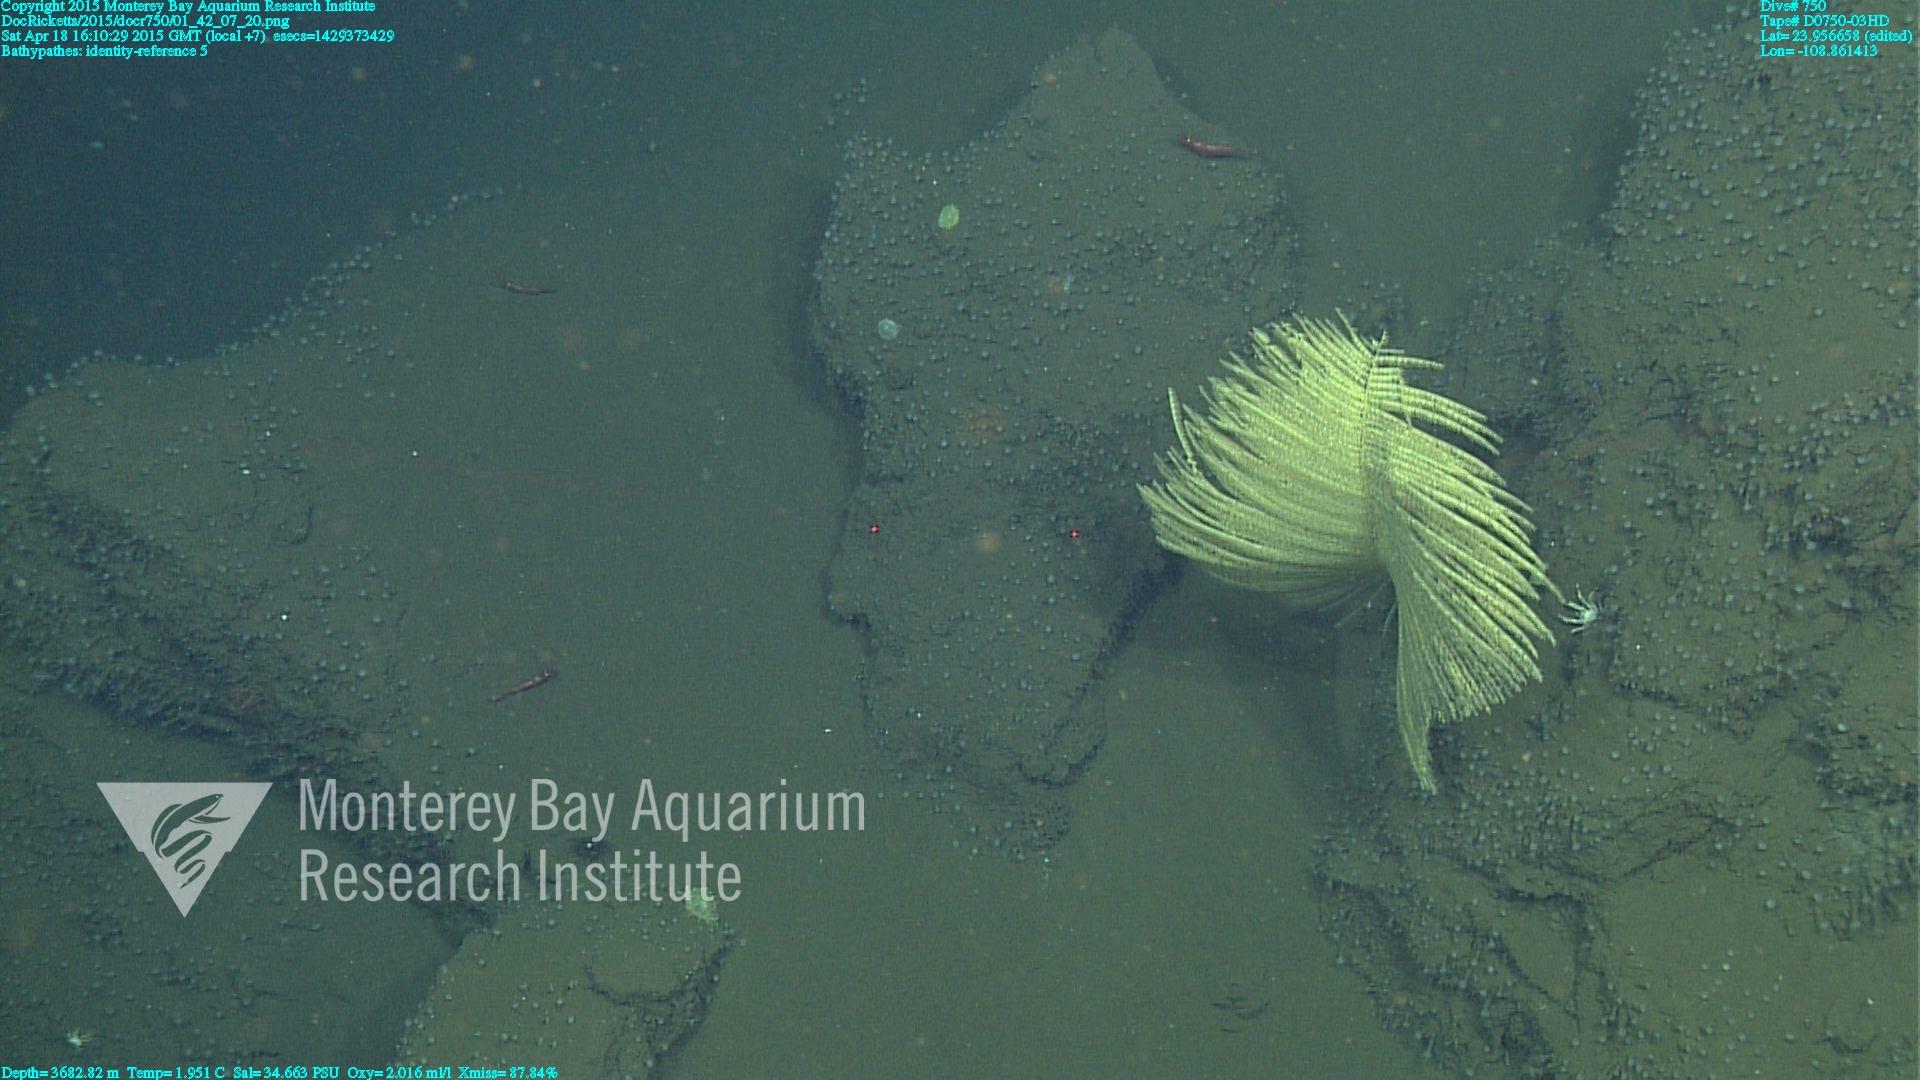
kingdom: Animalia
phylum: Cnidaria
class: Anthozoa
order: Antipatharia
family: Schizopathidae
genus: Bathypathes
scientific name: Bathypathes
